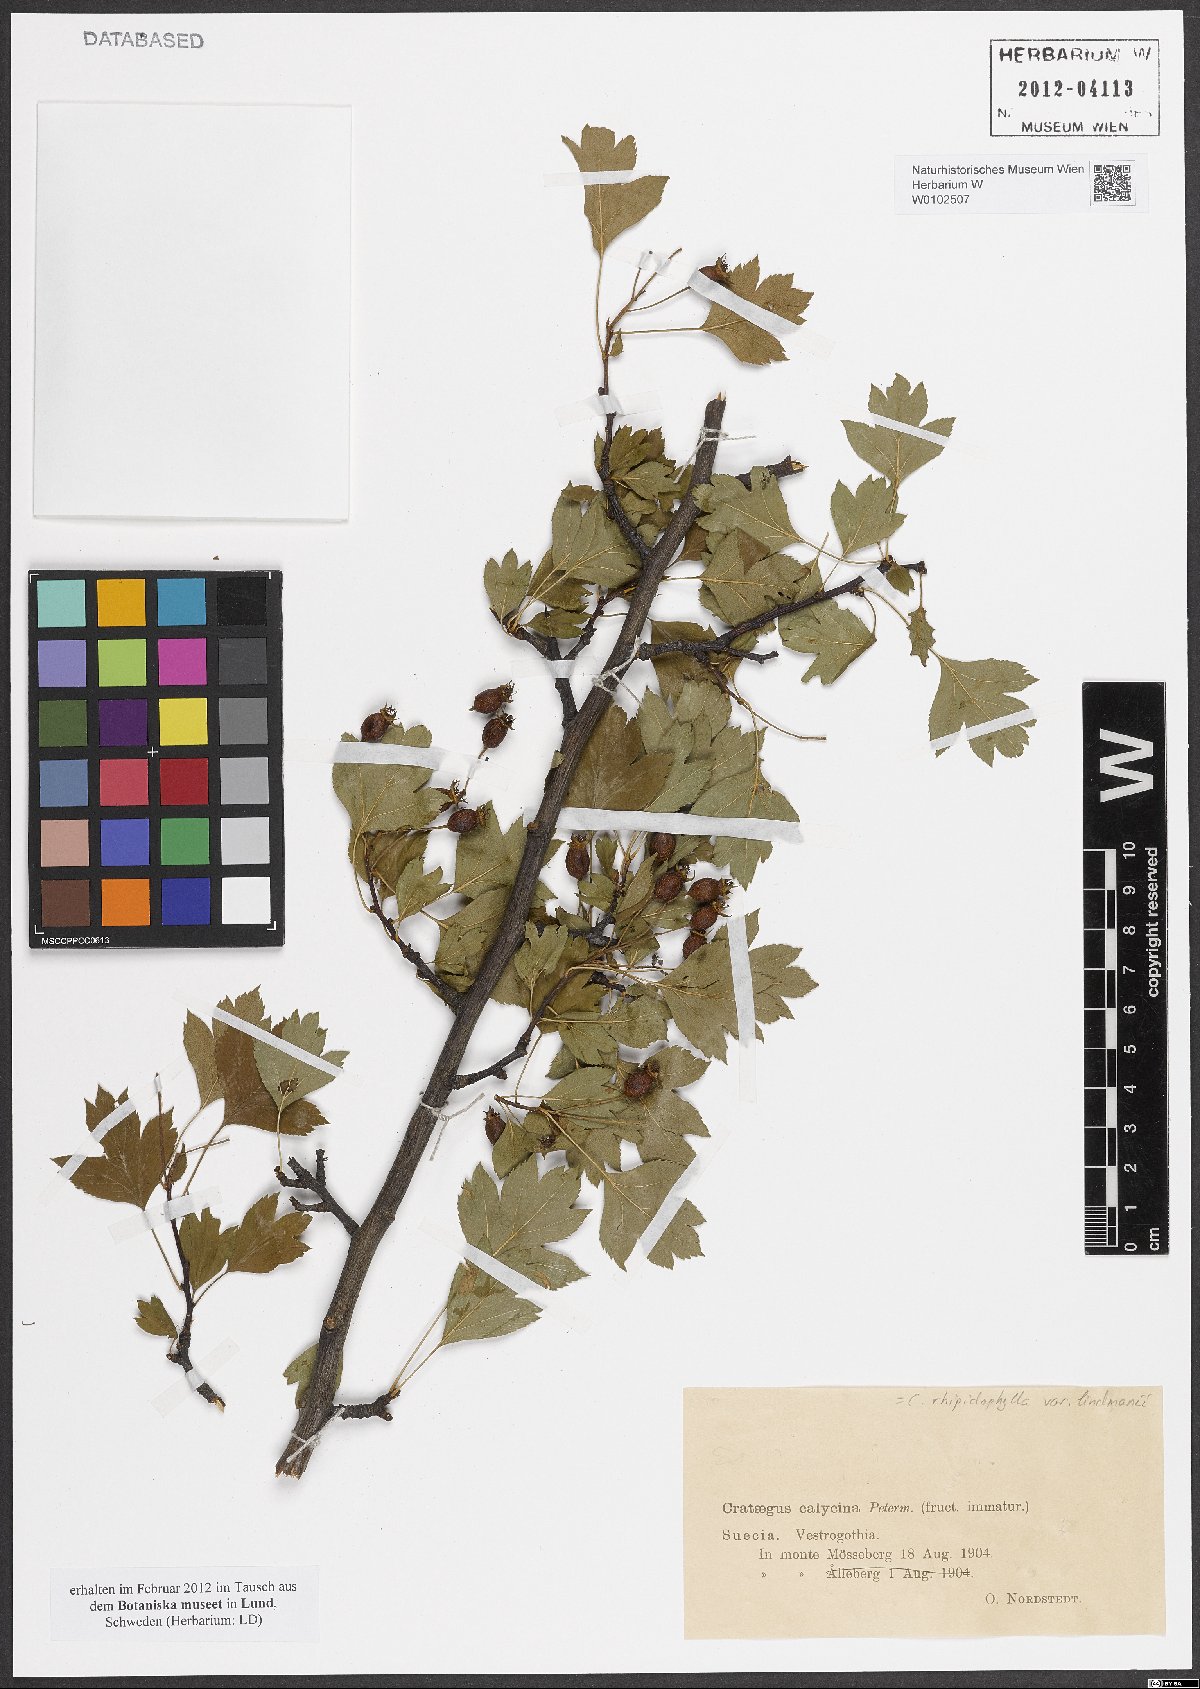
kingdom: Plantae
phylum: Tracheophyta
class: Magnoliopsida
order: Rosales
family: Rosaceae
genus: Crataegus
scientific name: Crataegus lindmanii
